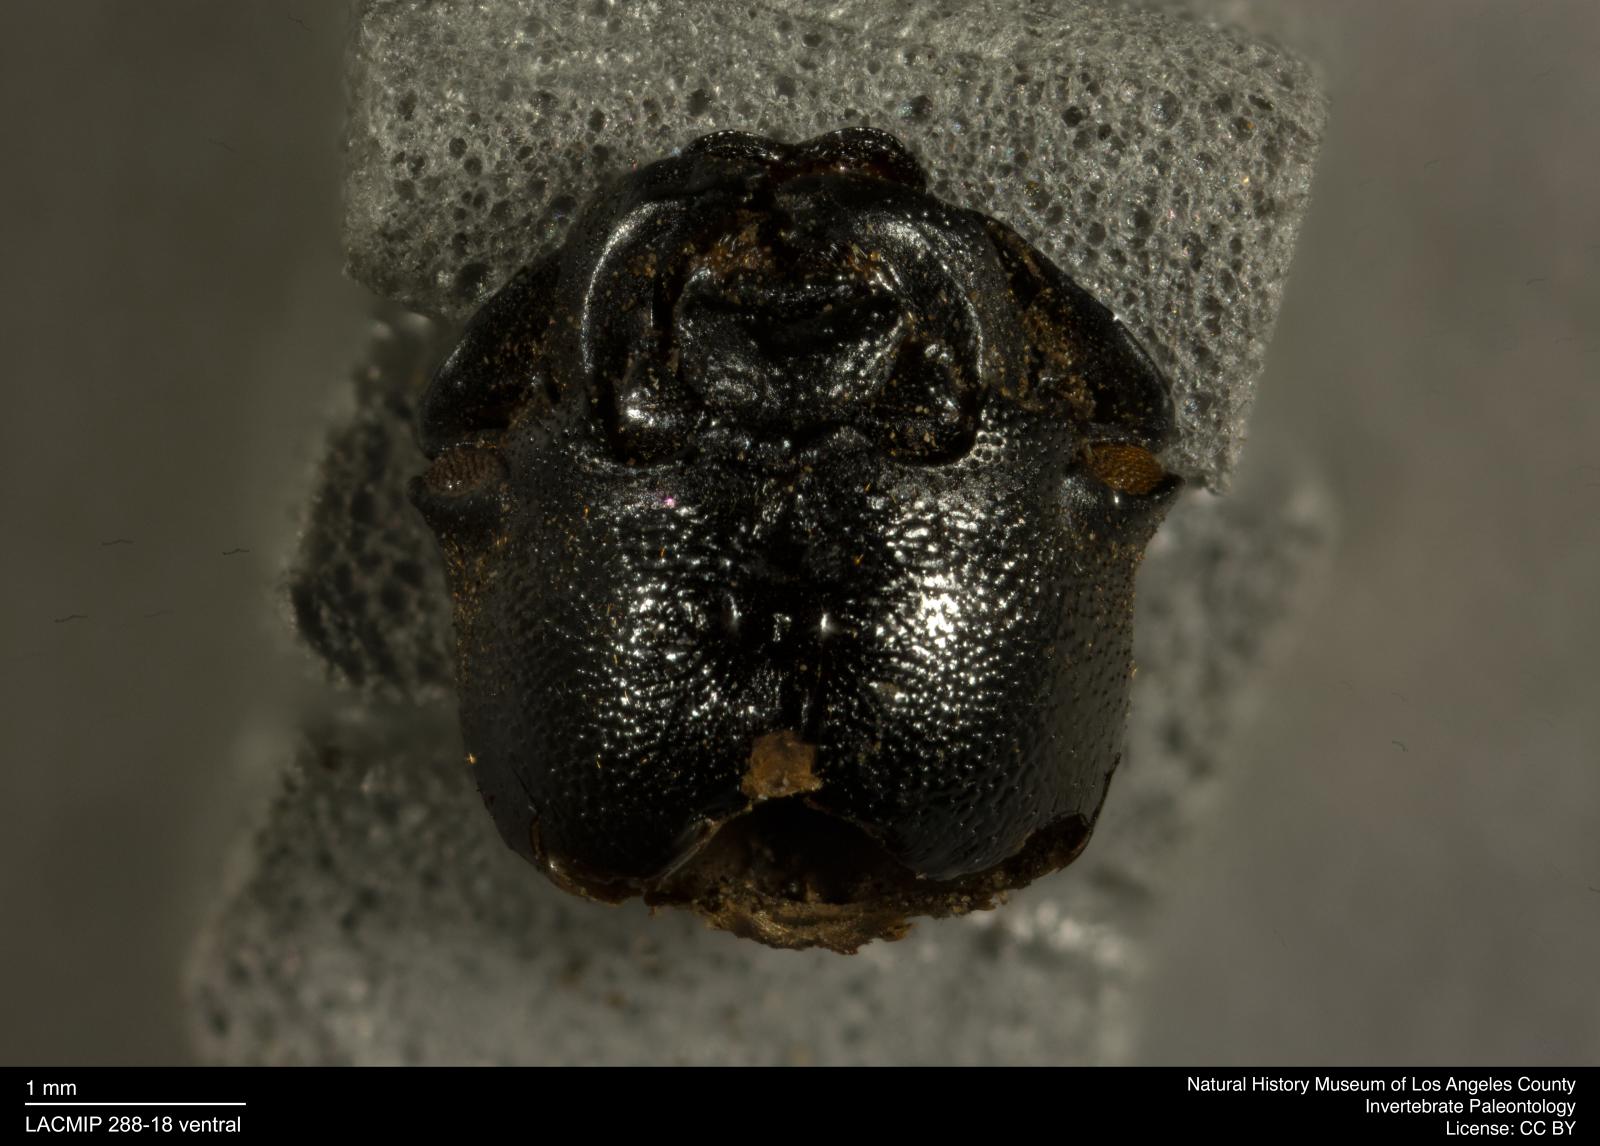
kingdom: Animalia
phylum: Arthropoda
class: Insecta
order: Coleoptera
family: Tenebrionidae
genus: Coniontis
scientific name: Coniontis abdominalis
